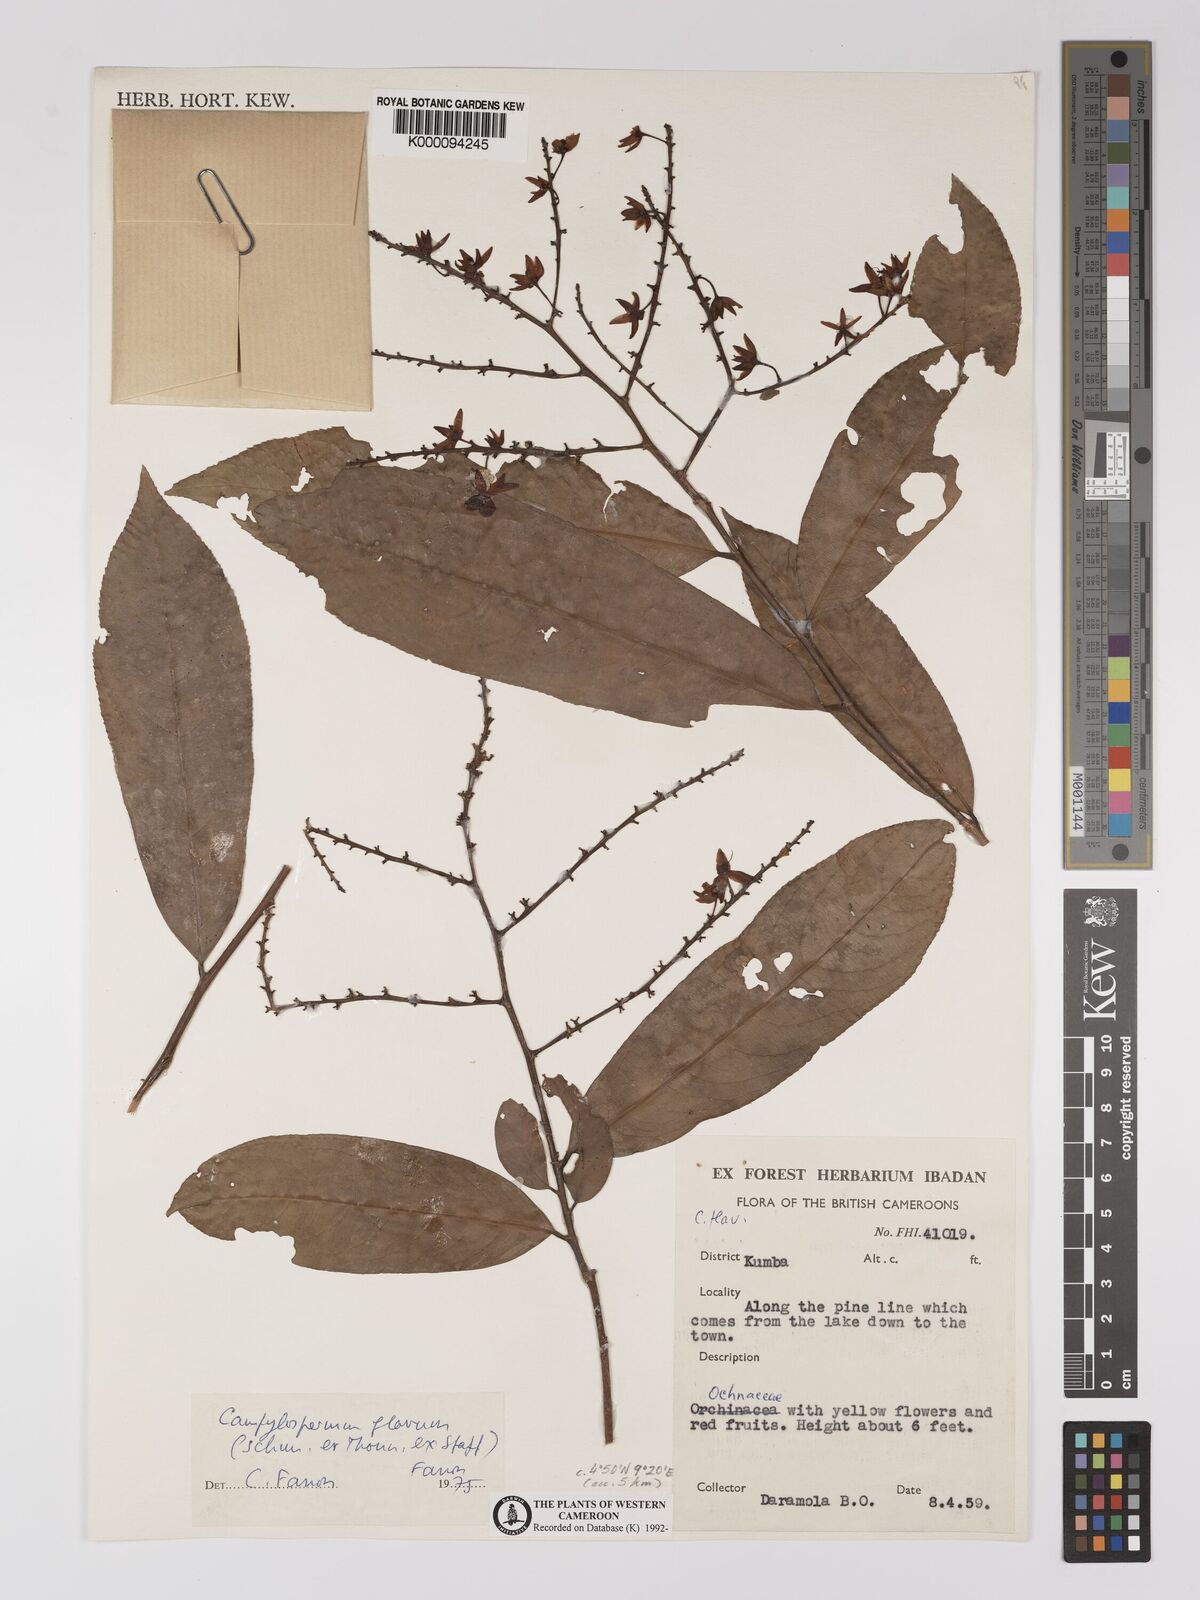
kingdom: Plantae
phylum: Tracheophyta
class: Magnoliopsida
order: Malpighiales
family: Ochnaceae
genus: Campylospermum
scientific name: Campylospermum flavum
